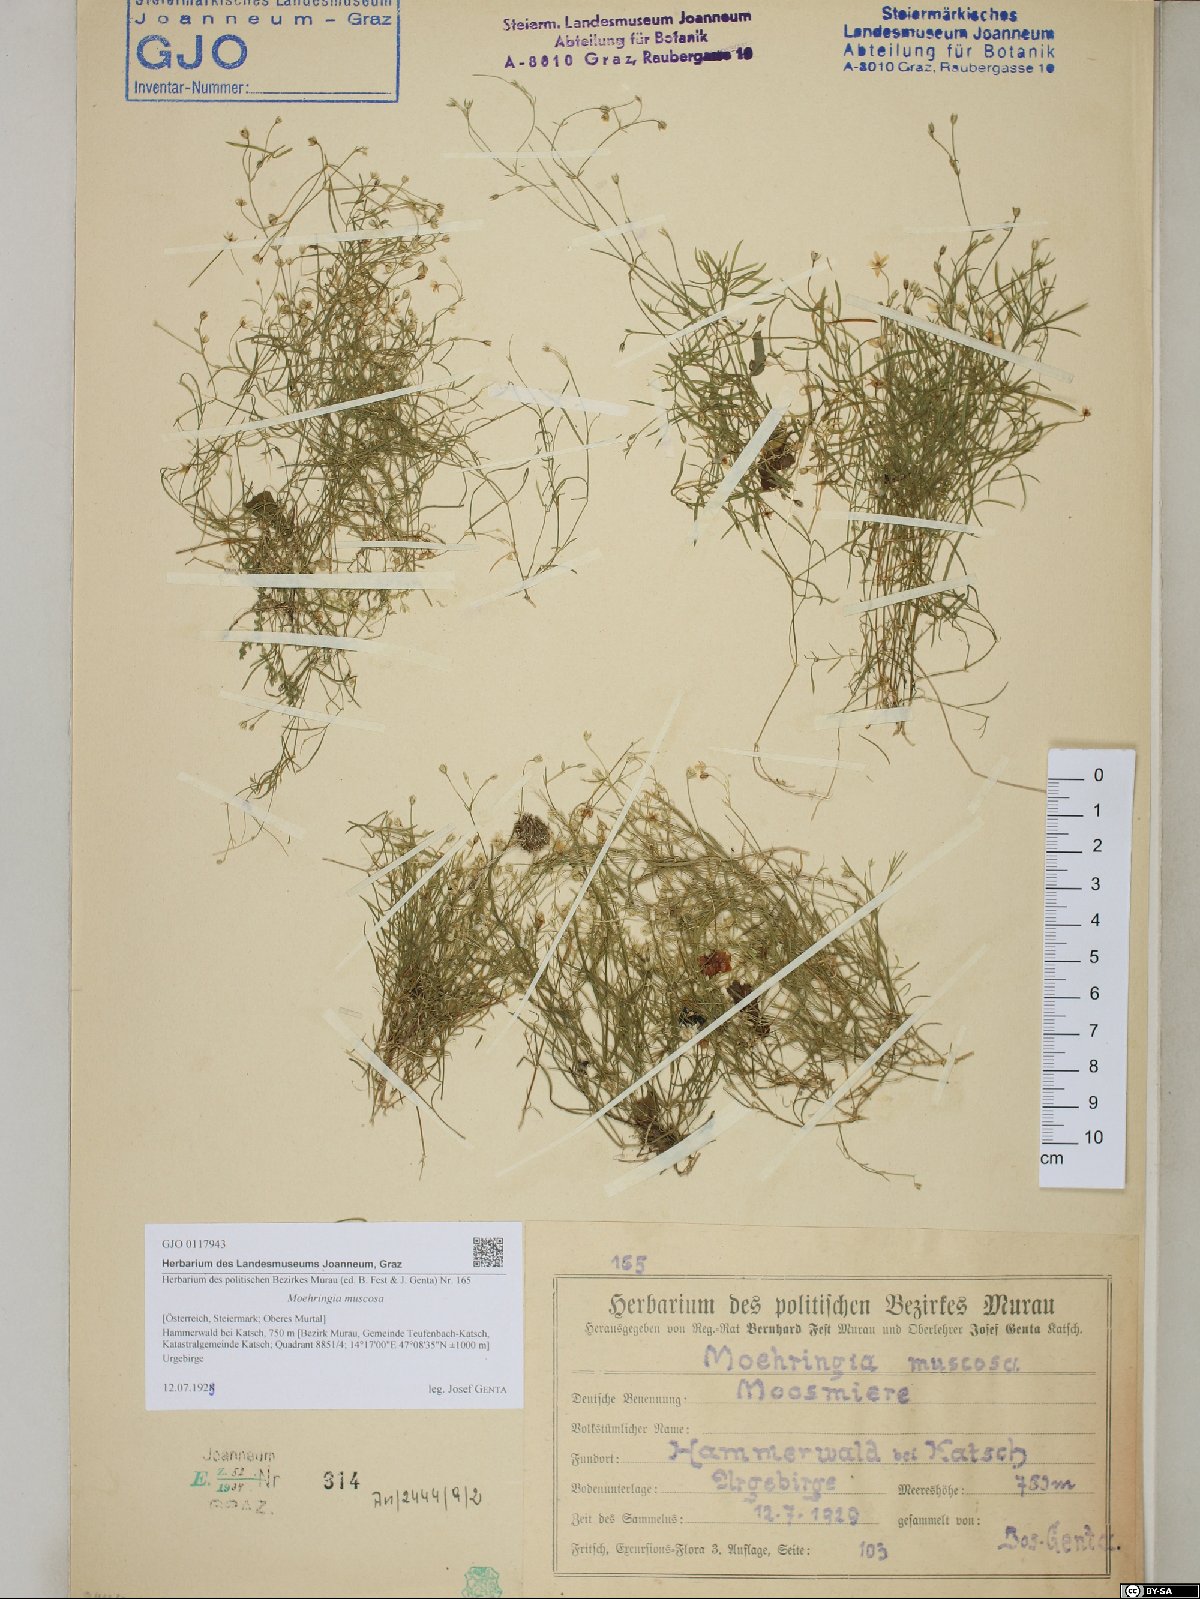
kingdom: Plantae
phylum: Tracheophyta
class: Magnoliopsida
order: Caryophyllales
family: Caryophyllaceae
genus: Moehringia
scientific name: Moehringia muscosa
